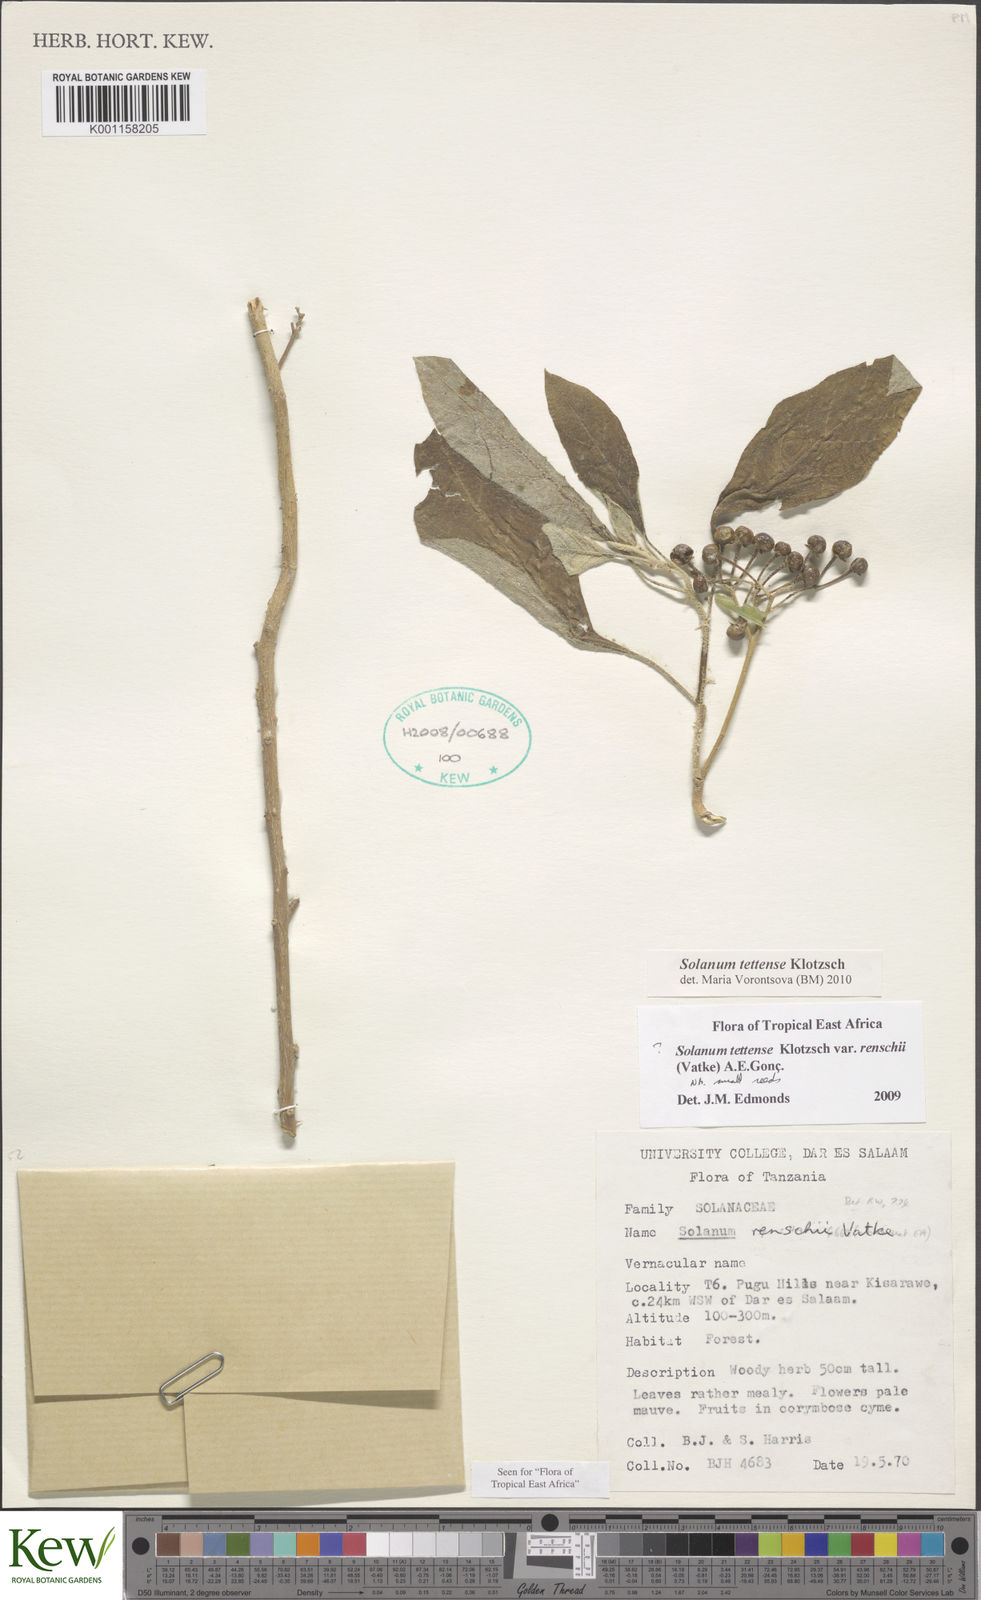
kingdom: Plantae
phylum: Tracheophyta
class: Magnoliopsida
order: Solanales
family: Solanaceae
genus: Solanum
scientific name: Solanum tettense
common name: Mozambique bitter apple
